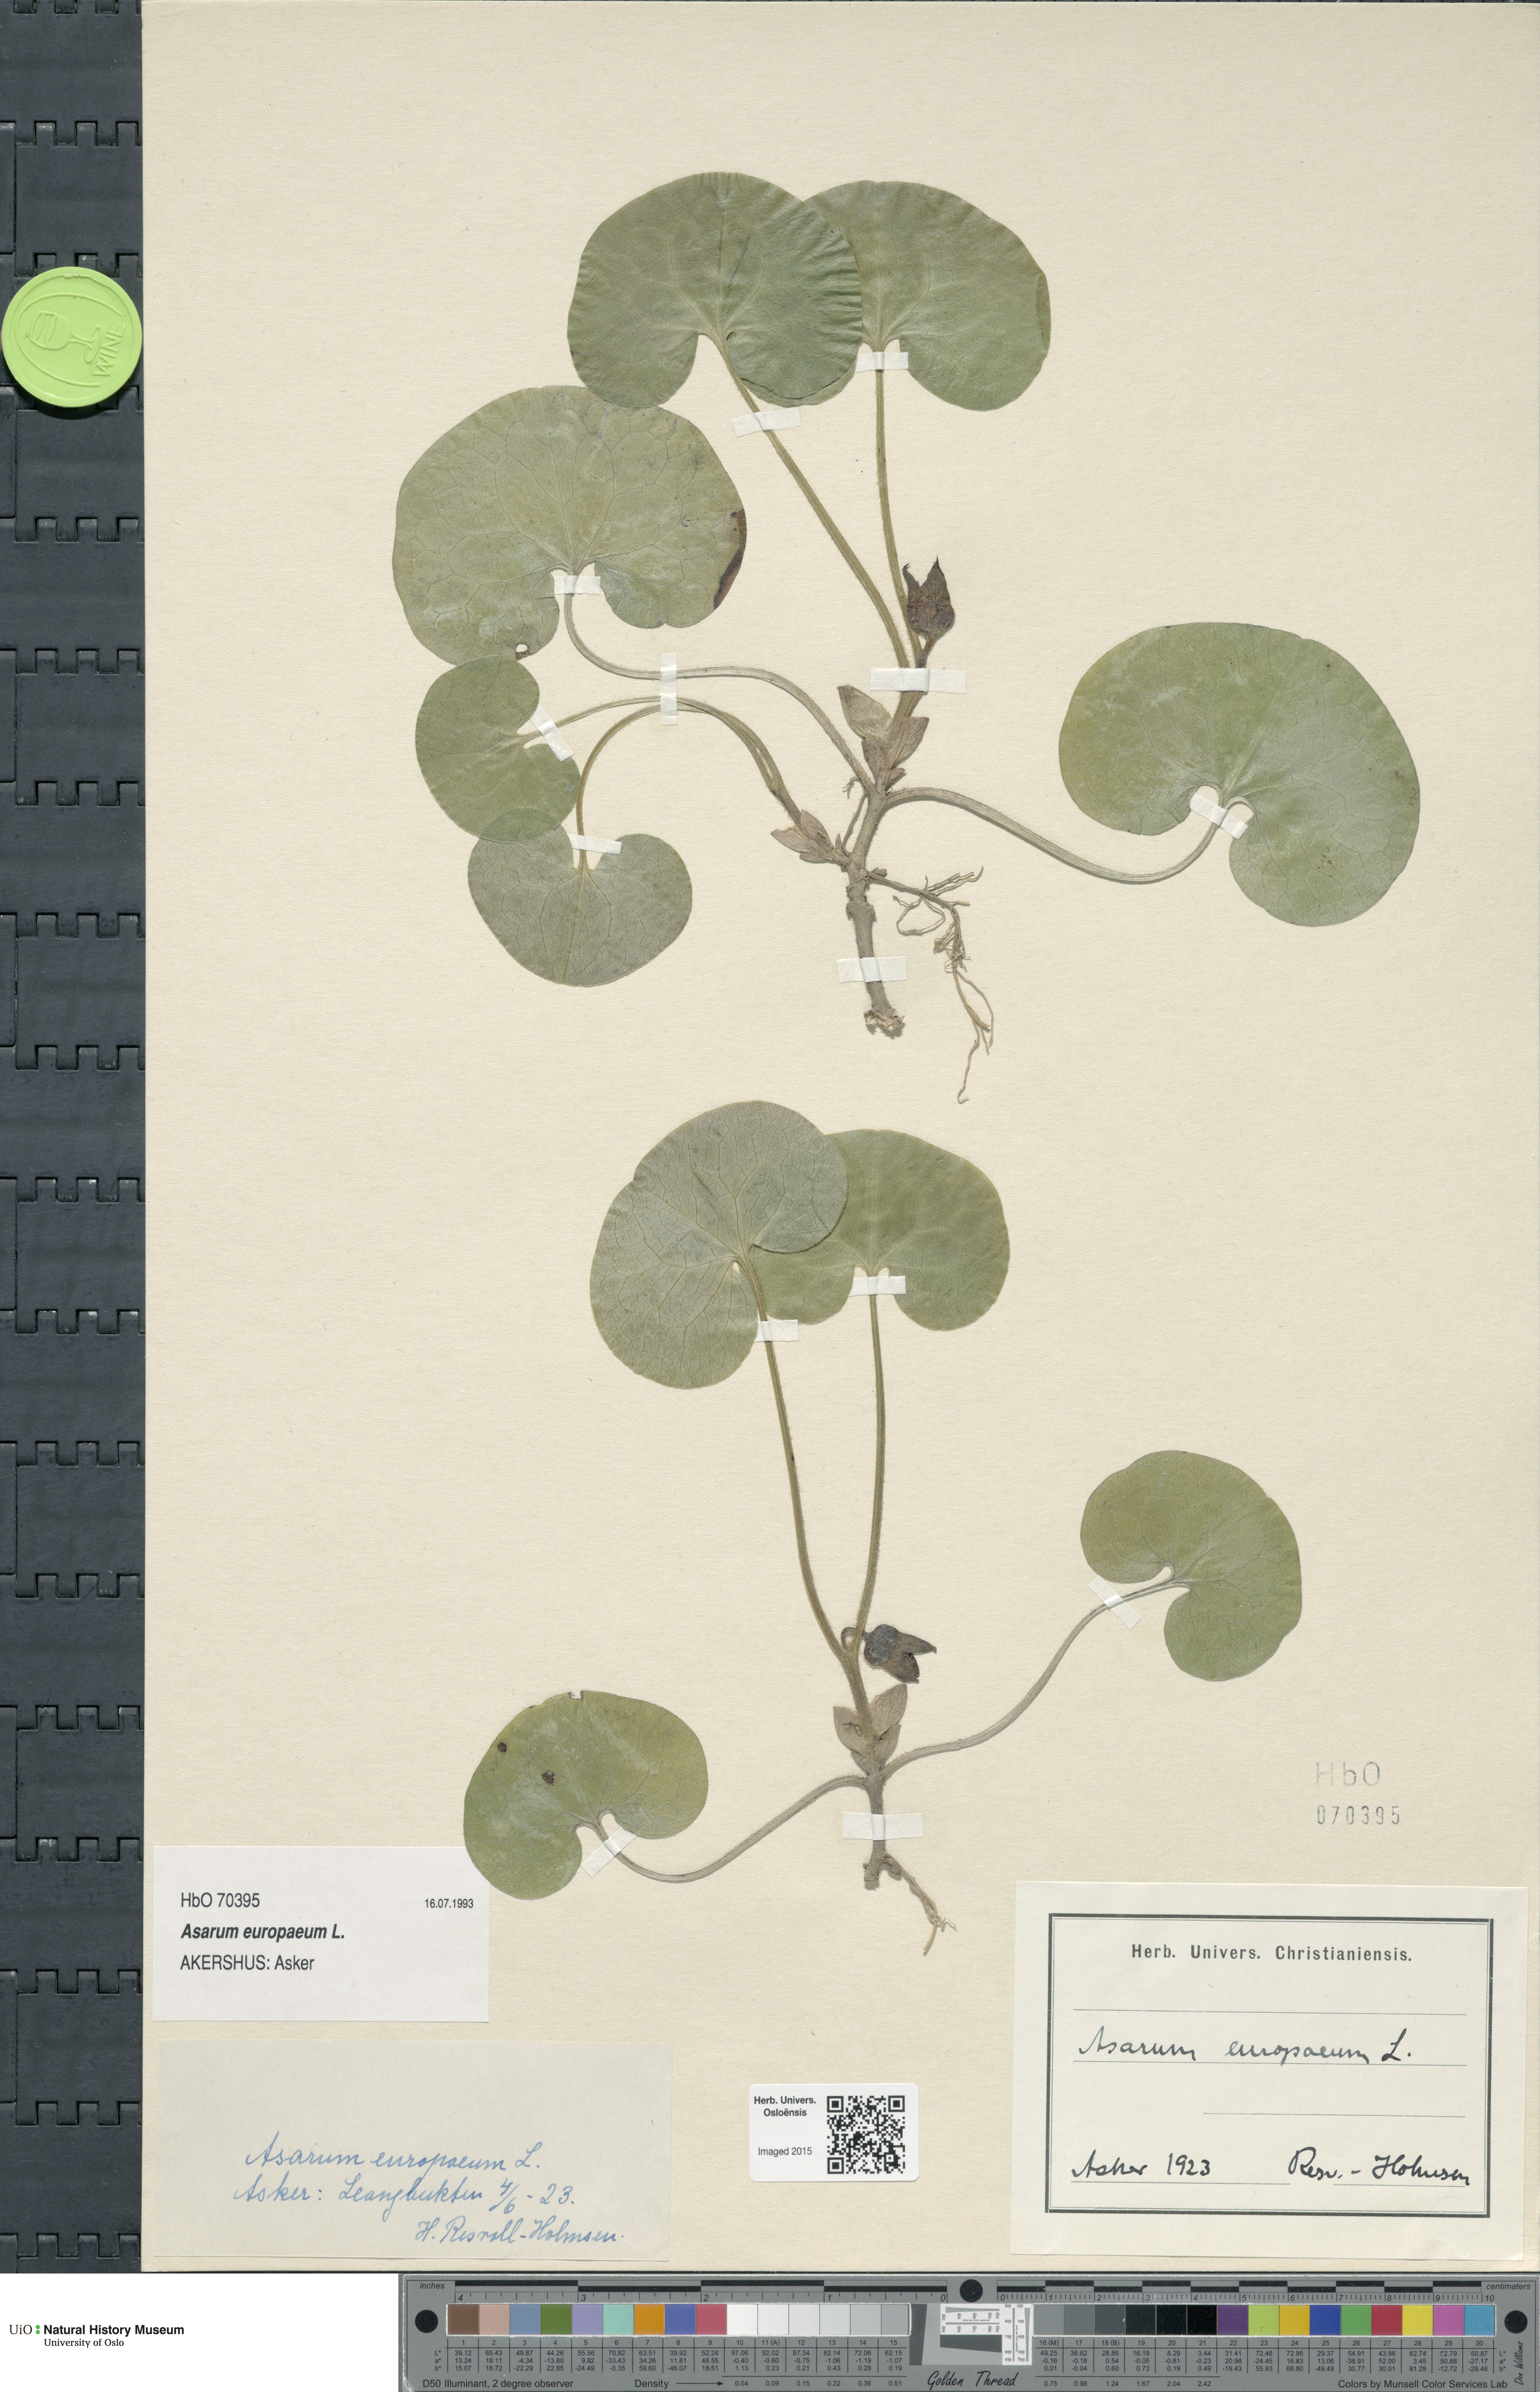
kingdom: Plantae
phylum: Tracheophyta
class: Magnoliopsida
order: Piperales
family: Aristolochiaceae
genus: Asarum
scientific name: Asarum europaeum
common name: Asarabacca
